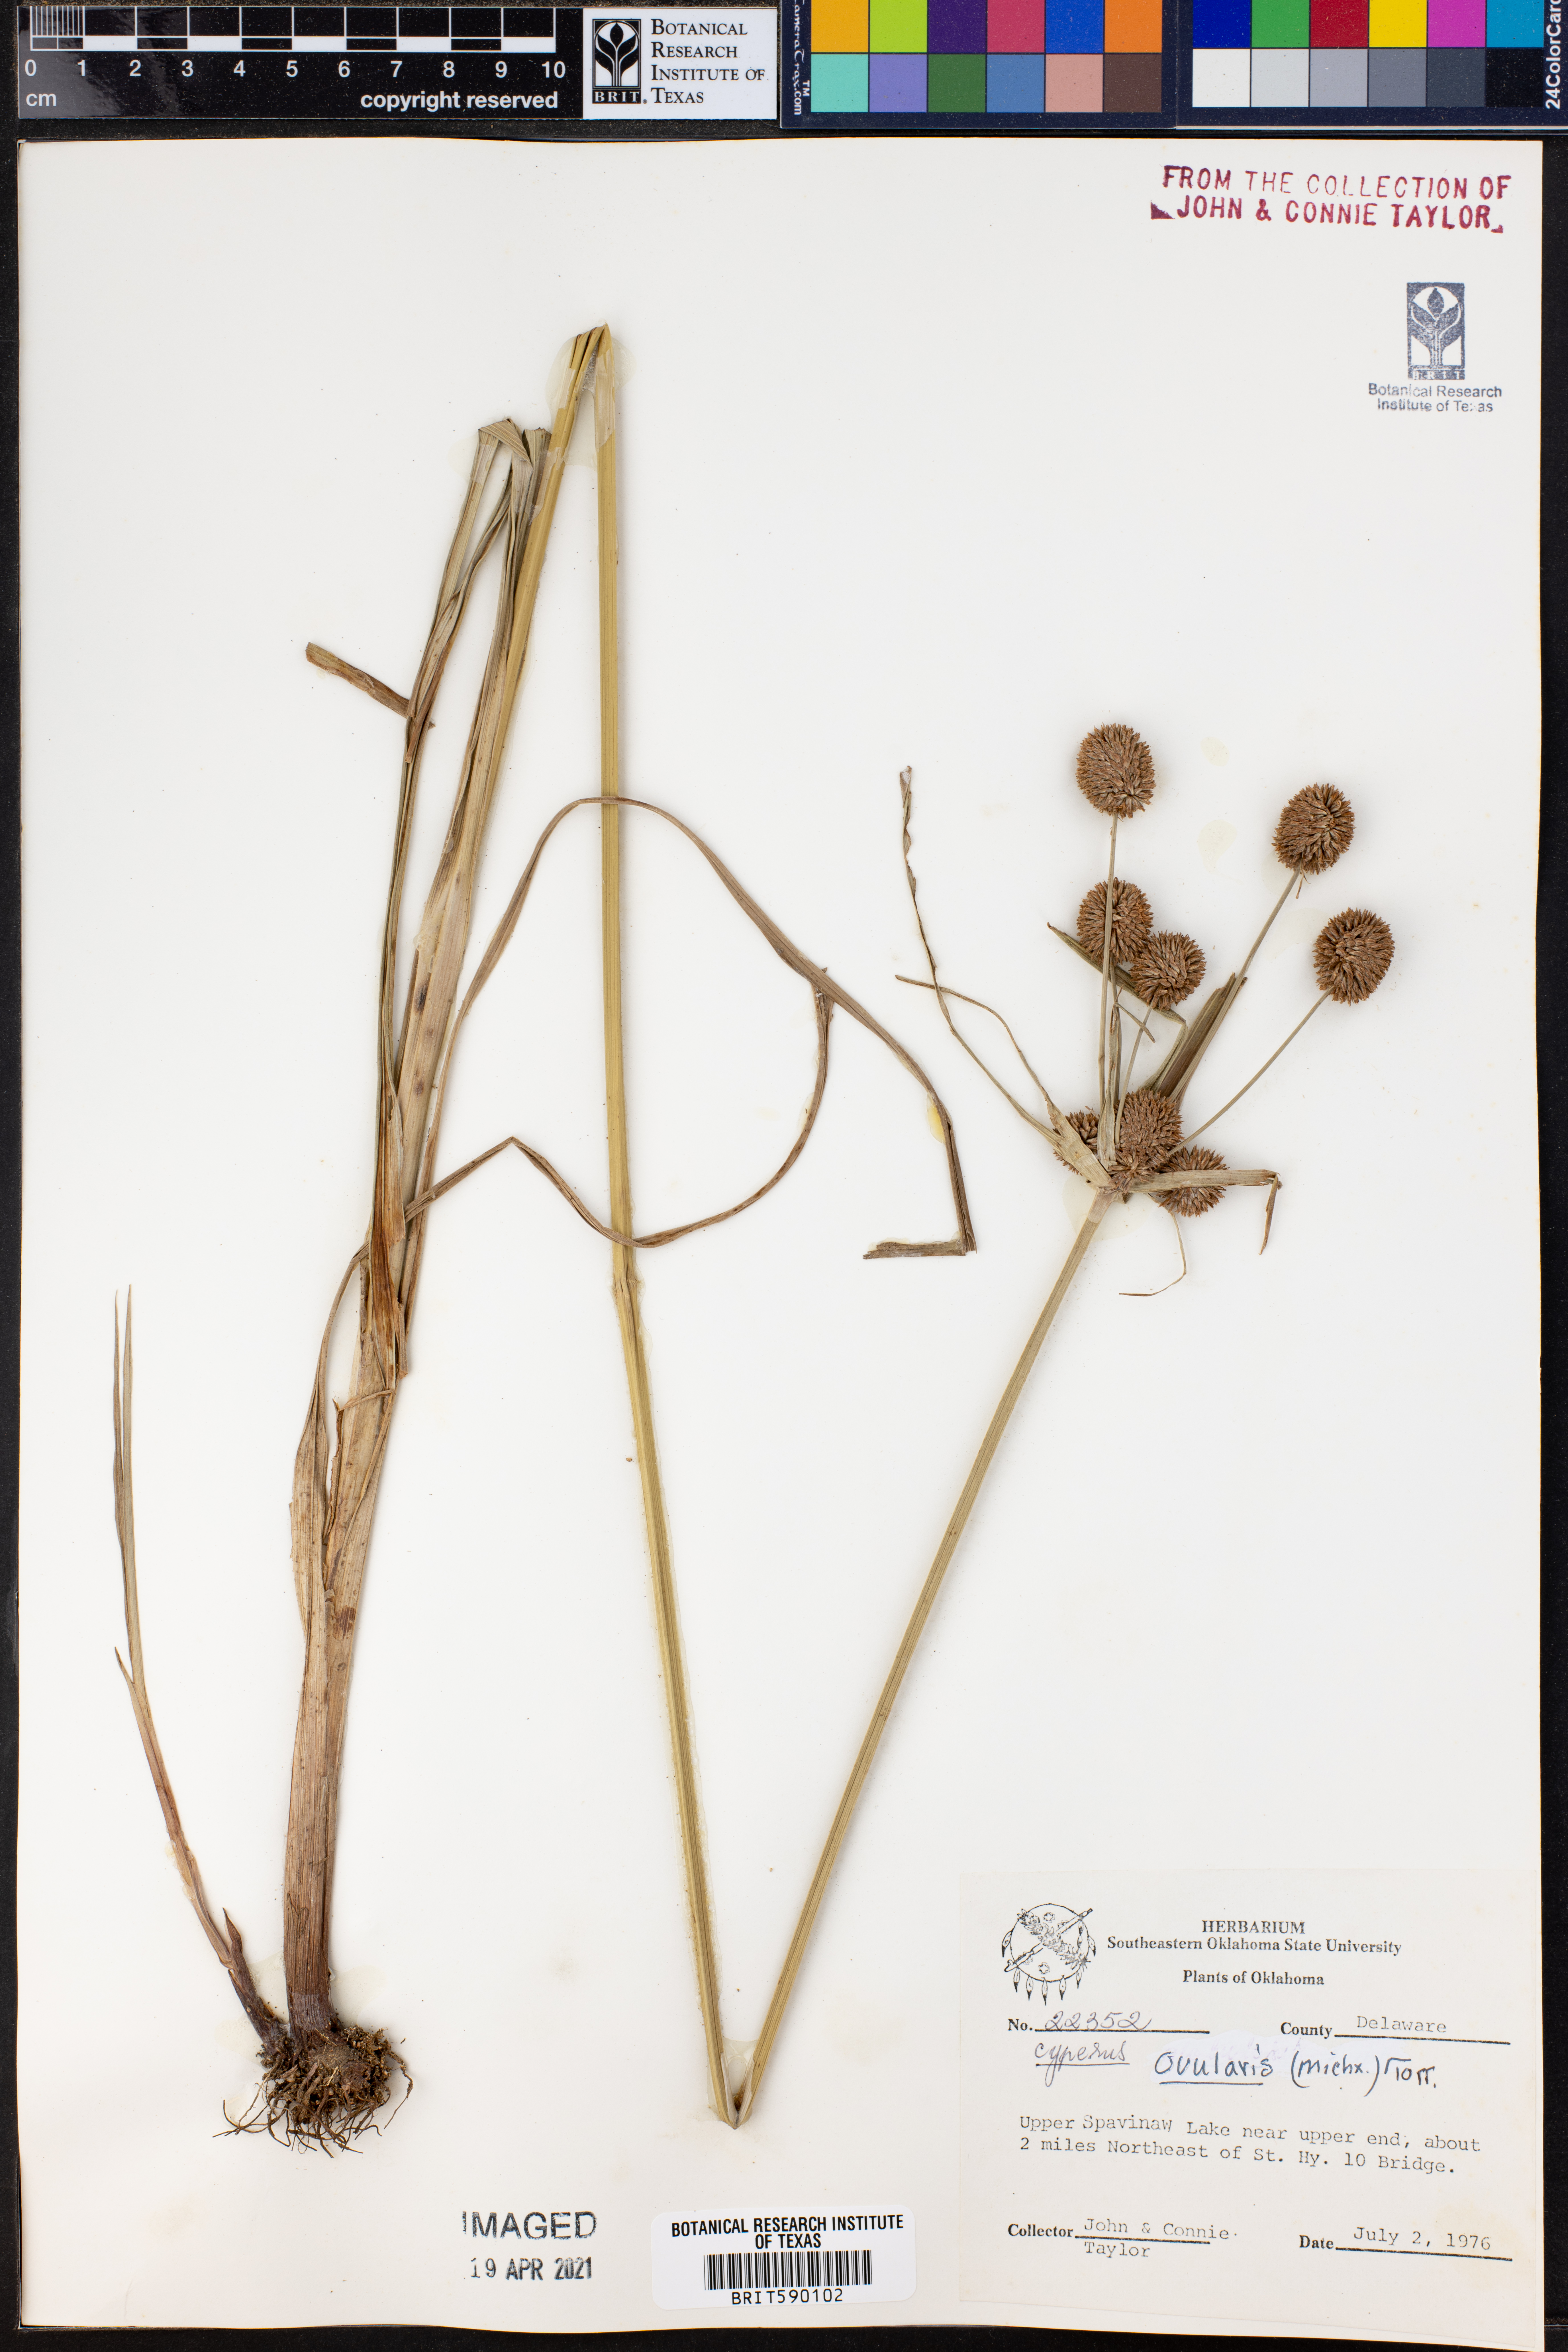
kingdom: Plantae
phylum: Tracheophyta
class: Liliopsida
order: Poales
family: Cyperaceae
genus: Cyperus
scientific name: Cyperus echinatus
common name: Teasel sedge
